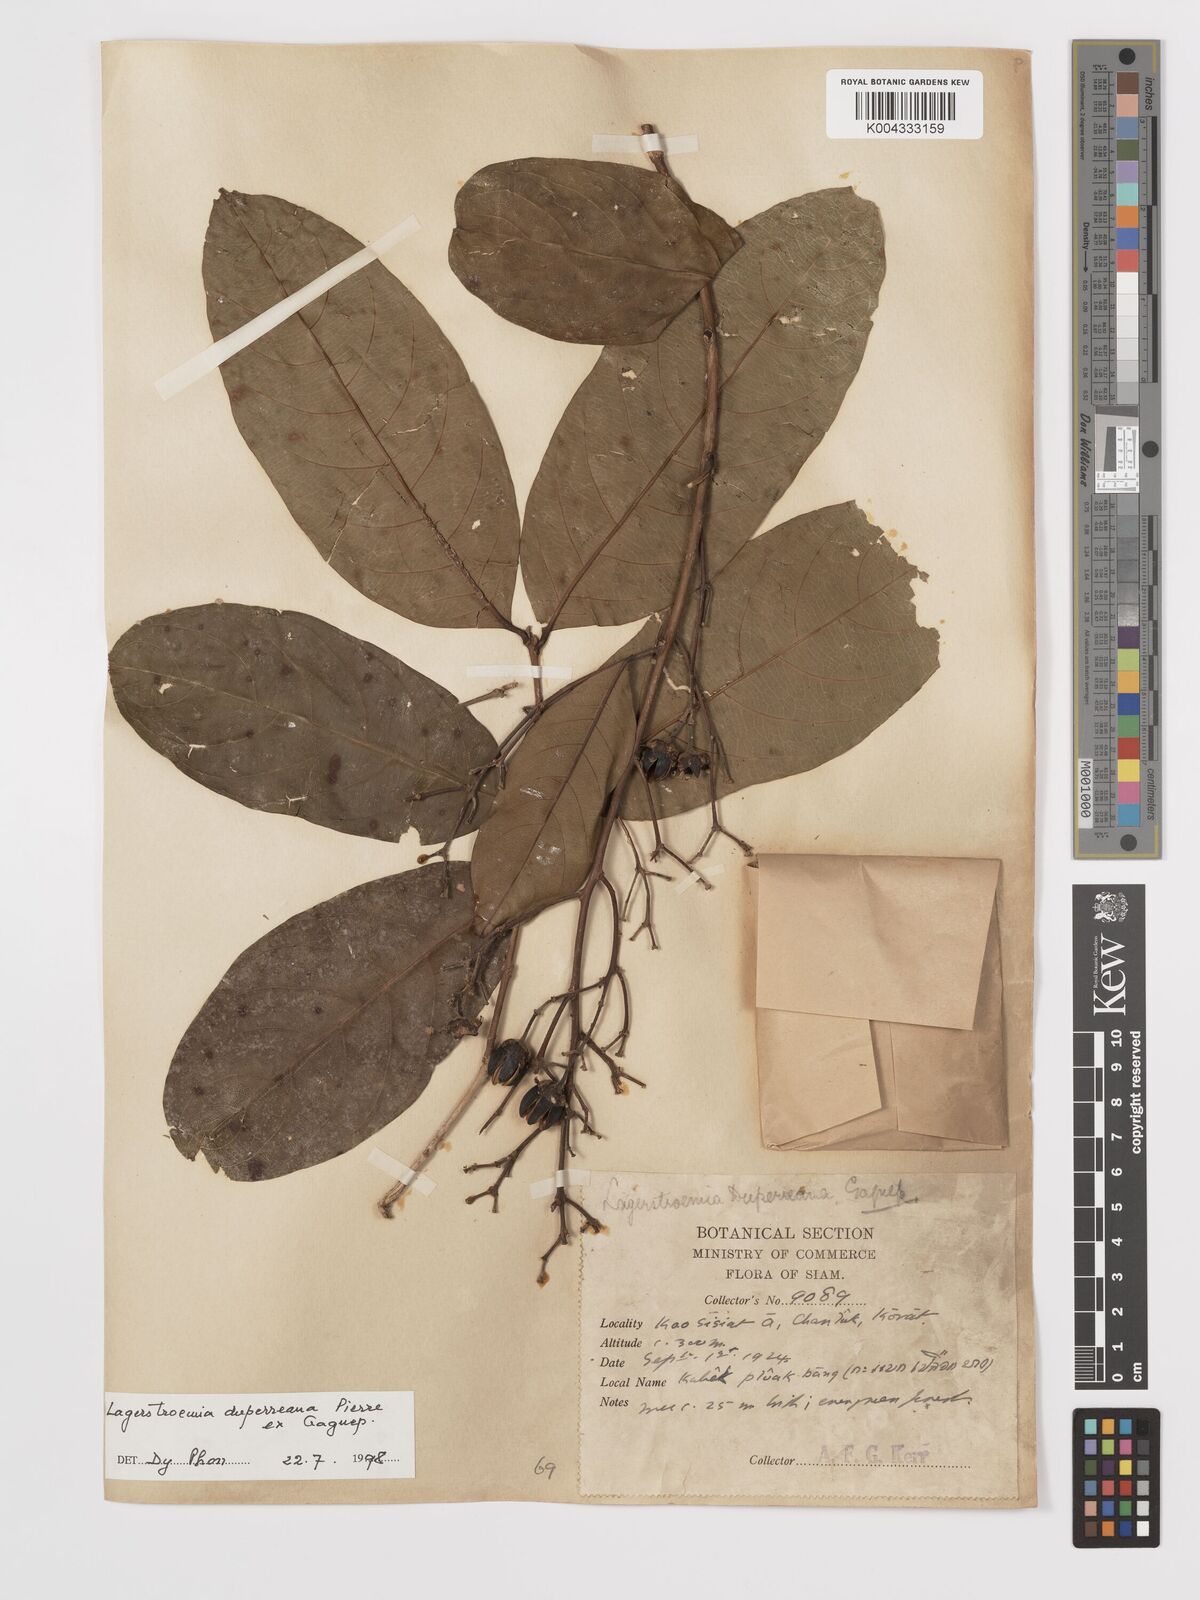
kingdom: Plantae
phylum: Tracheophyta
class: Magnoliopsida
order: Myrtales
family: Lythraceae
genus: Lagerstroemia
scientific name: Lagerstroemia duperreana
